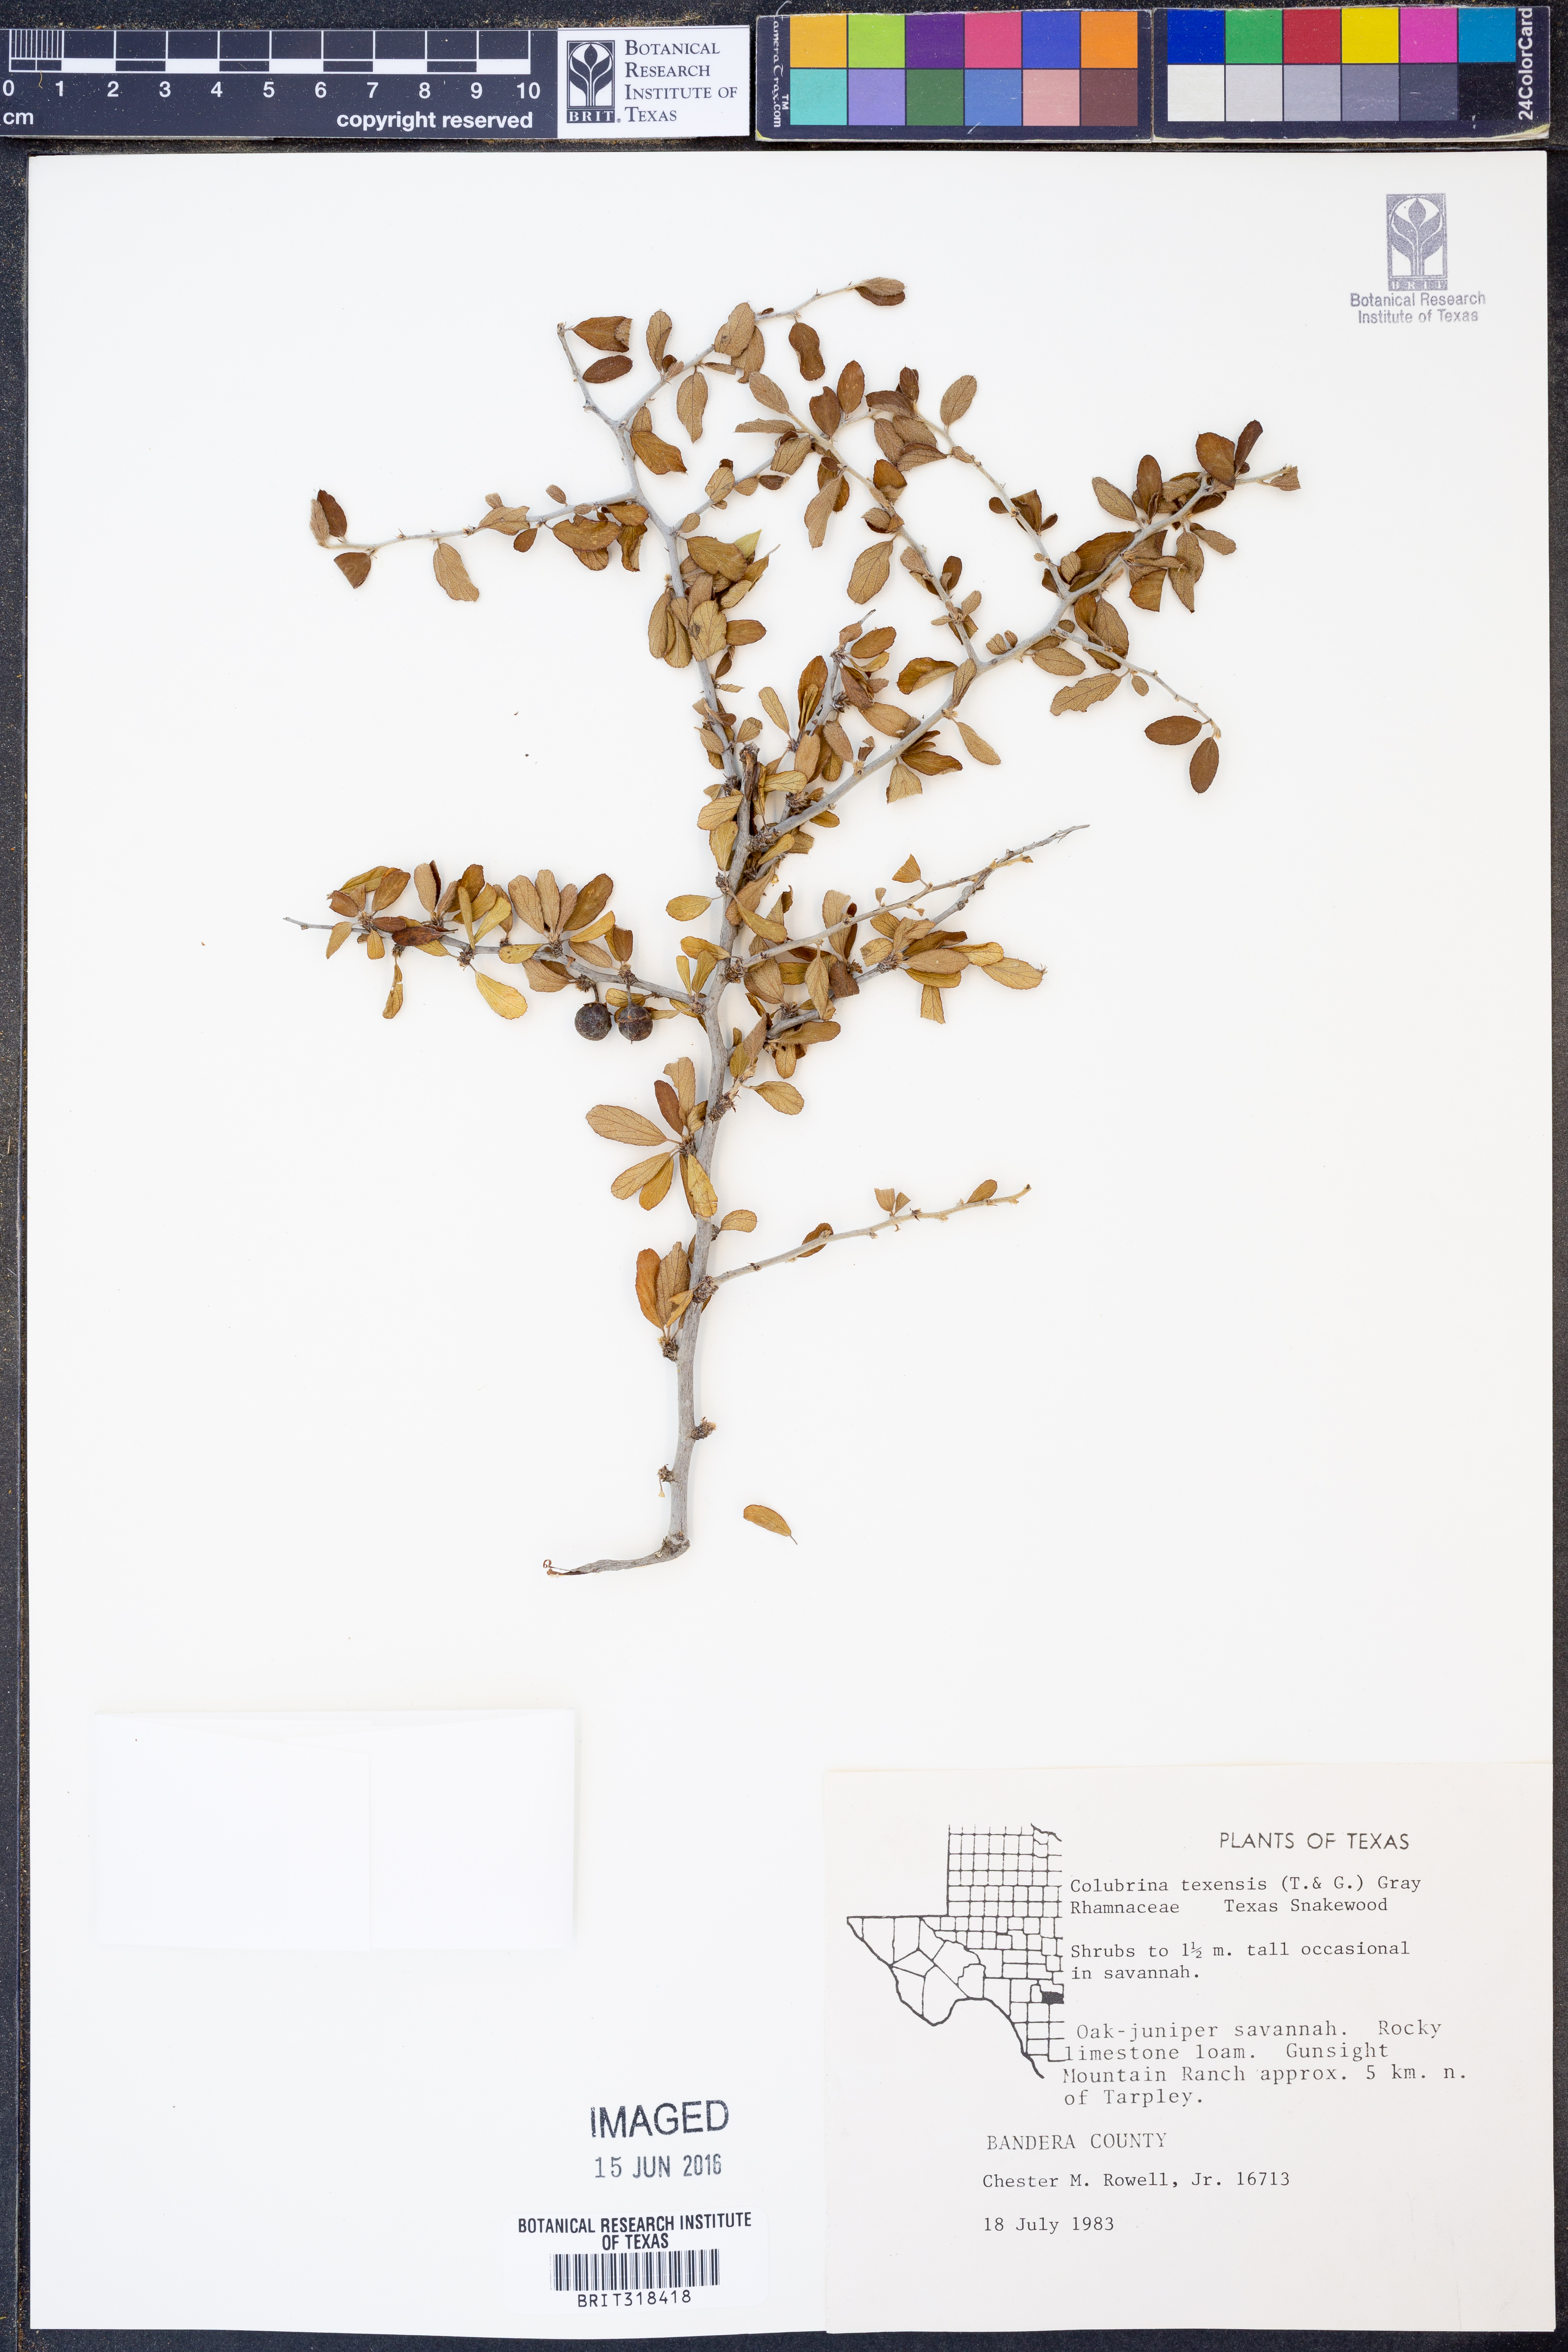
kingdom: Plantae
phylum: Tracheophyta
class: Magnoliopsida
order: Rosales
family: Rhamnaceae
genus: Colubrina
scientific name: Colubrina texensis
